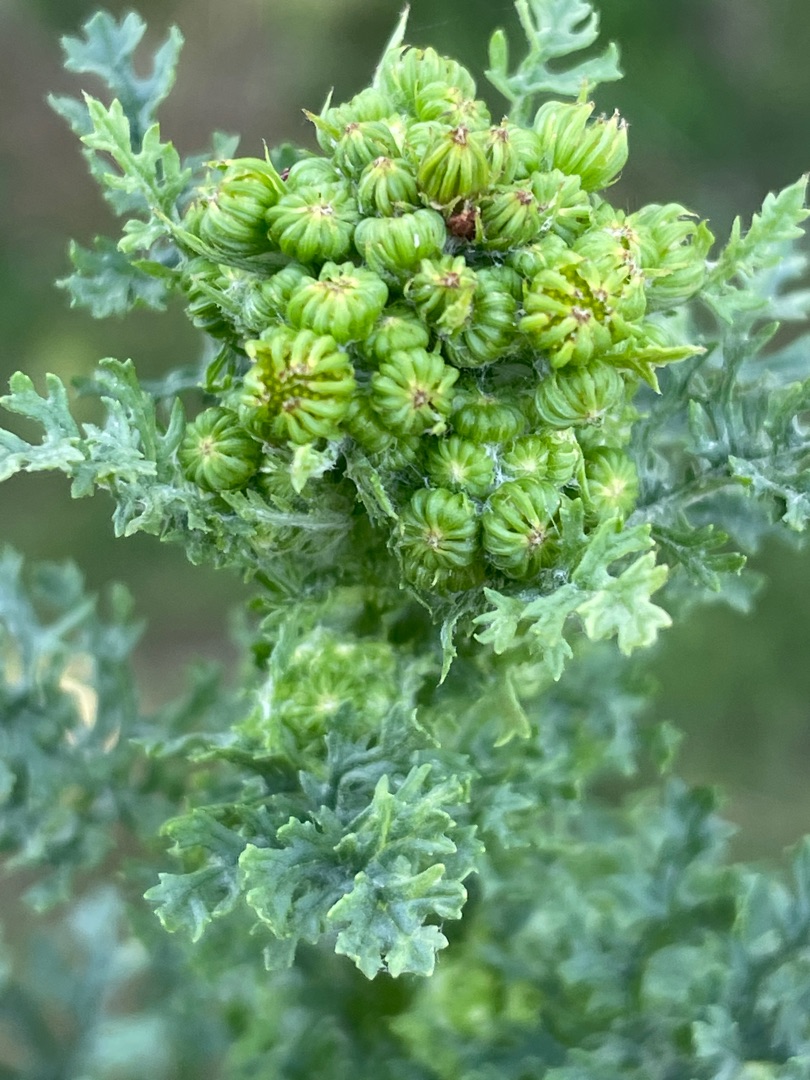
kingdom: Plantae
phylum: Tracheophyta
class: Magnoliopsida
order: Asterales
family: Asteraceae
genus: Jacobaea
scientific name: Jacobaea vulgaris
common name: Eng-brandbæger
